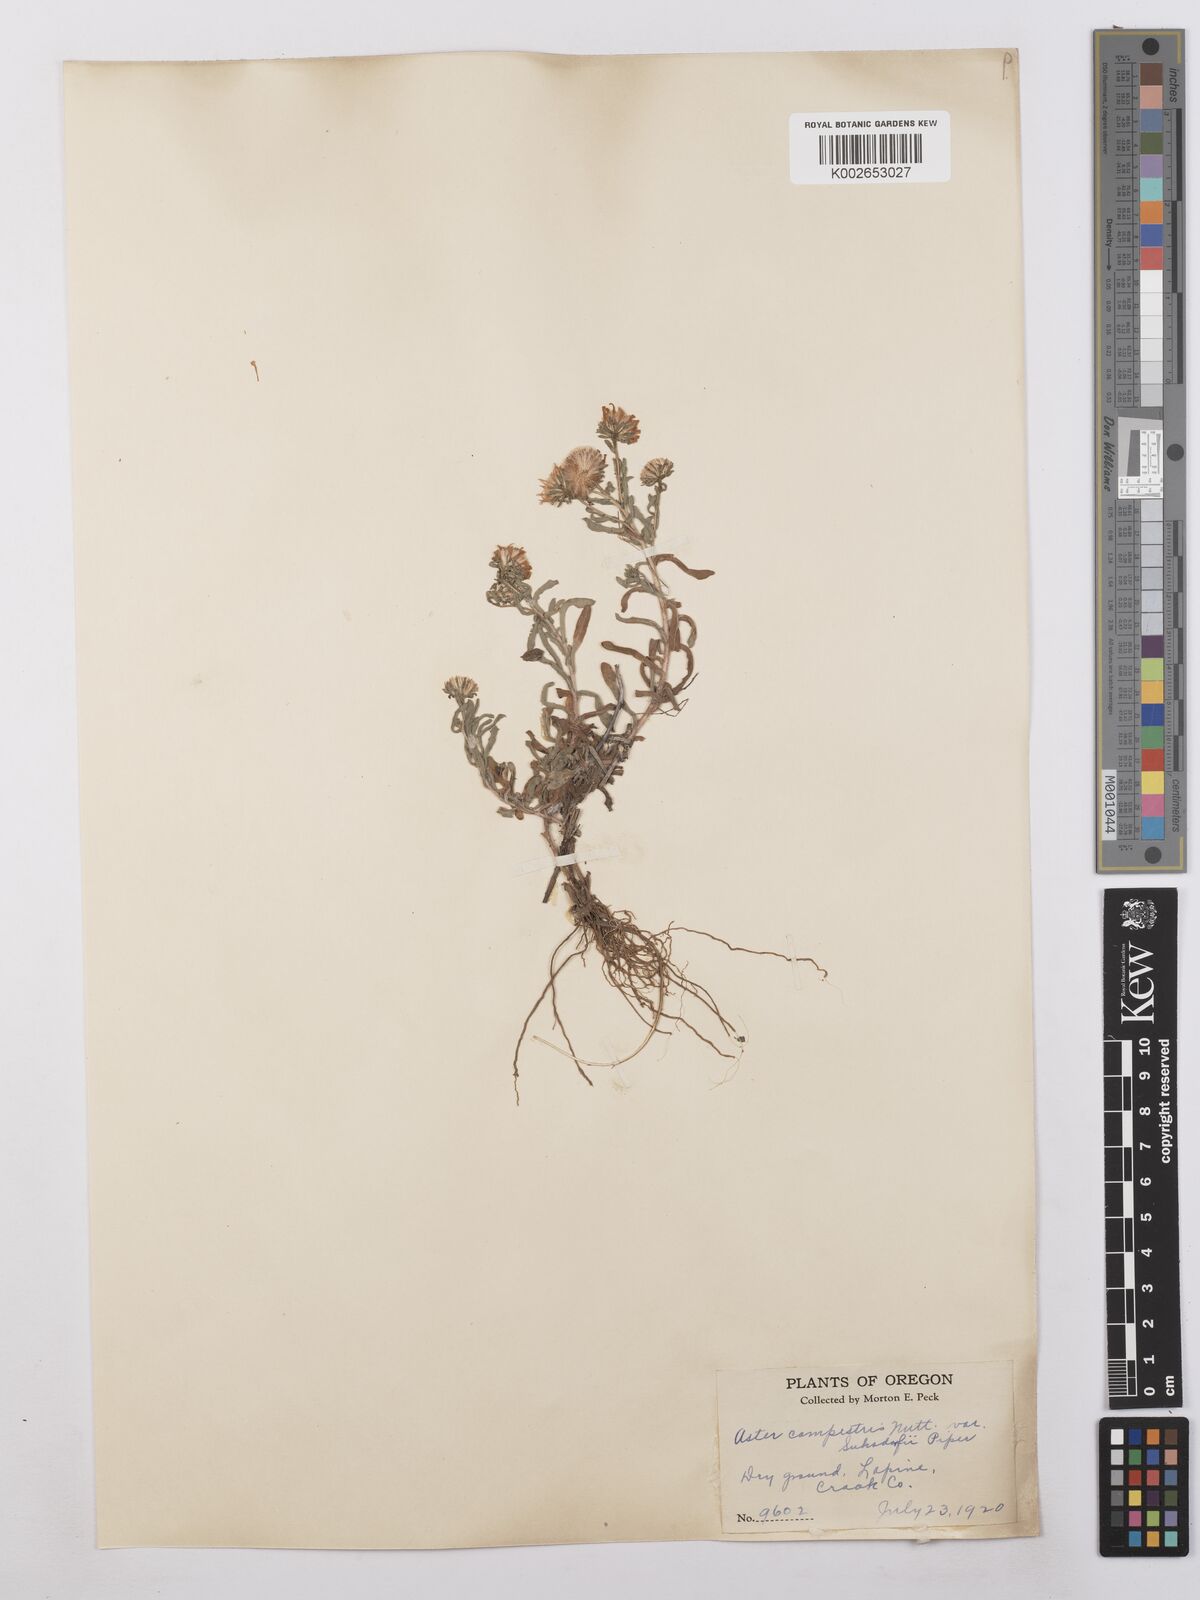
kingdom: Plantae
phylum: Tracheophyta
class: Magnoliopsida
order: Asterales
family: Asteraceae
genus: Symphyotrichum
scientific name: Symphyotrichum fendleri
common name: Fendler's aster
